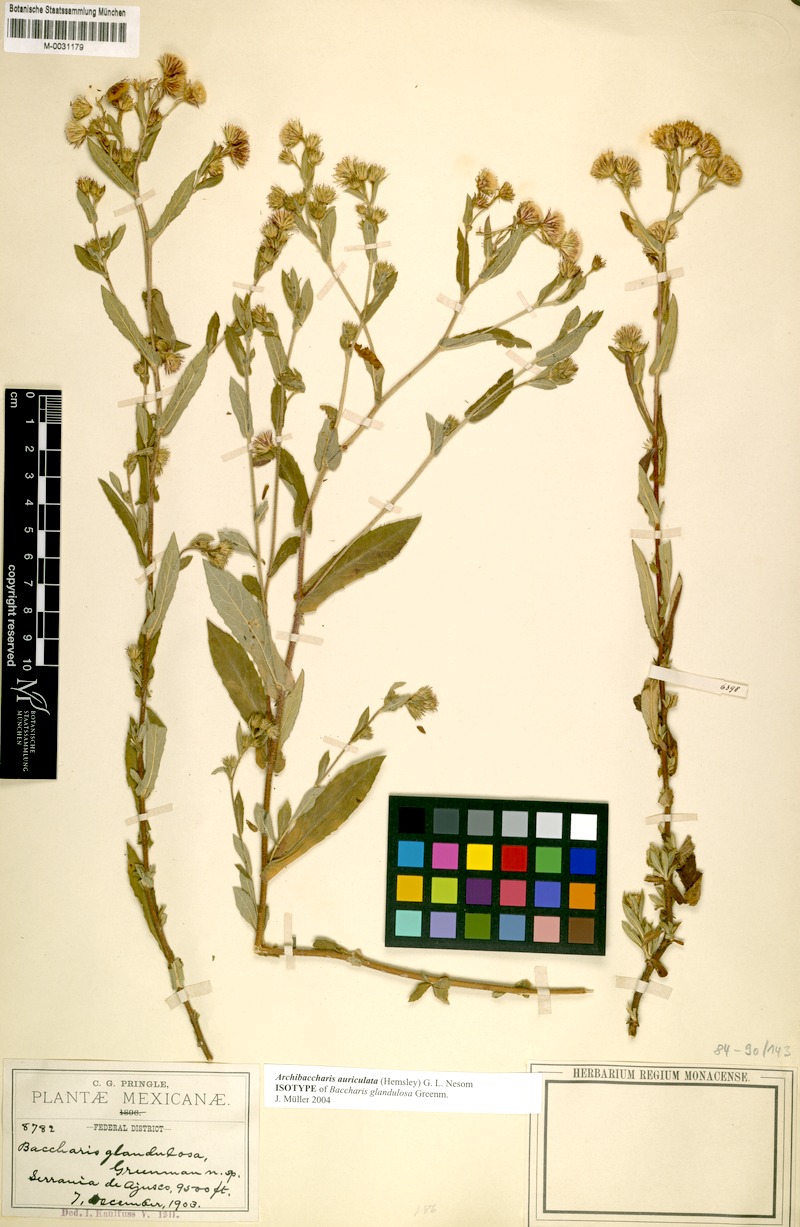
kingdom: Plantae
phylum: Tracheophyta
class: Magnoliopsida
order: Asterales
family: Asteraceae
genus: Archibaccharis
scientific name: Archibaccharis auriculata
